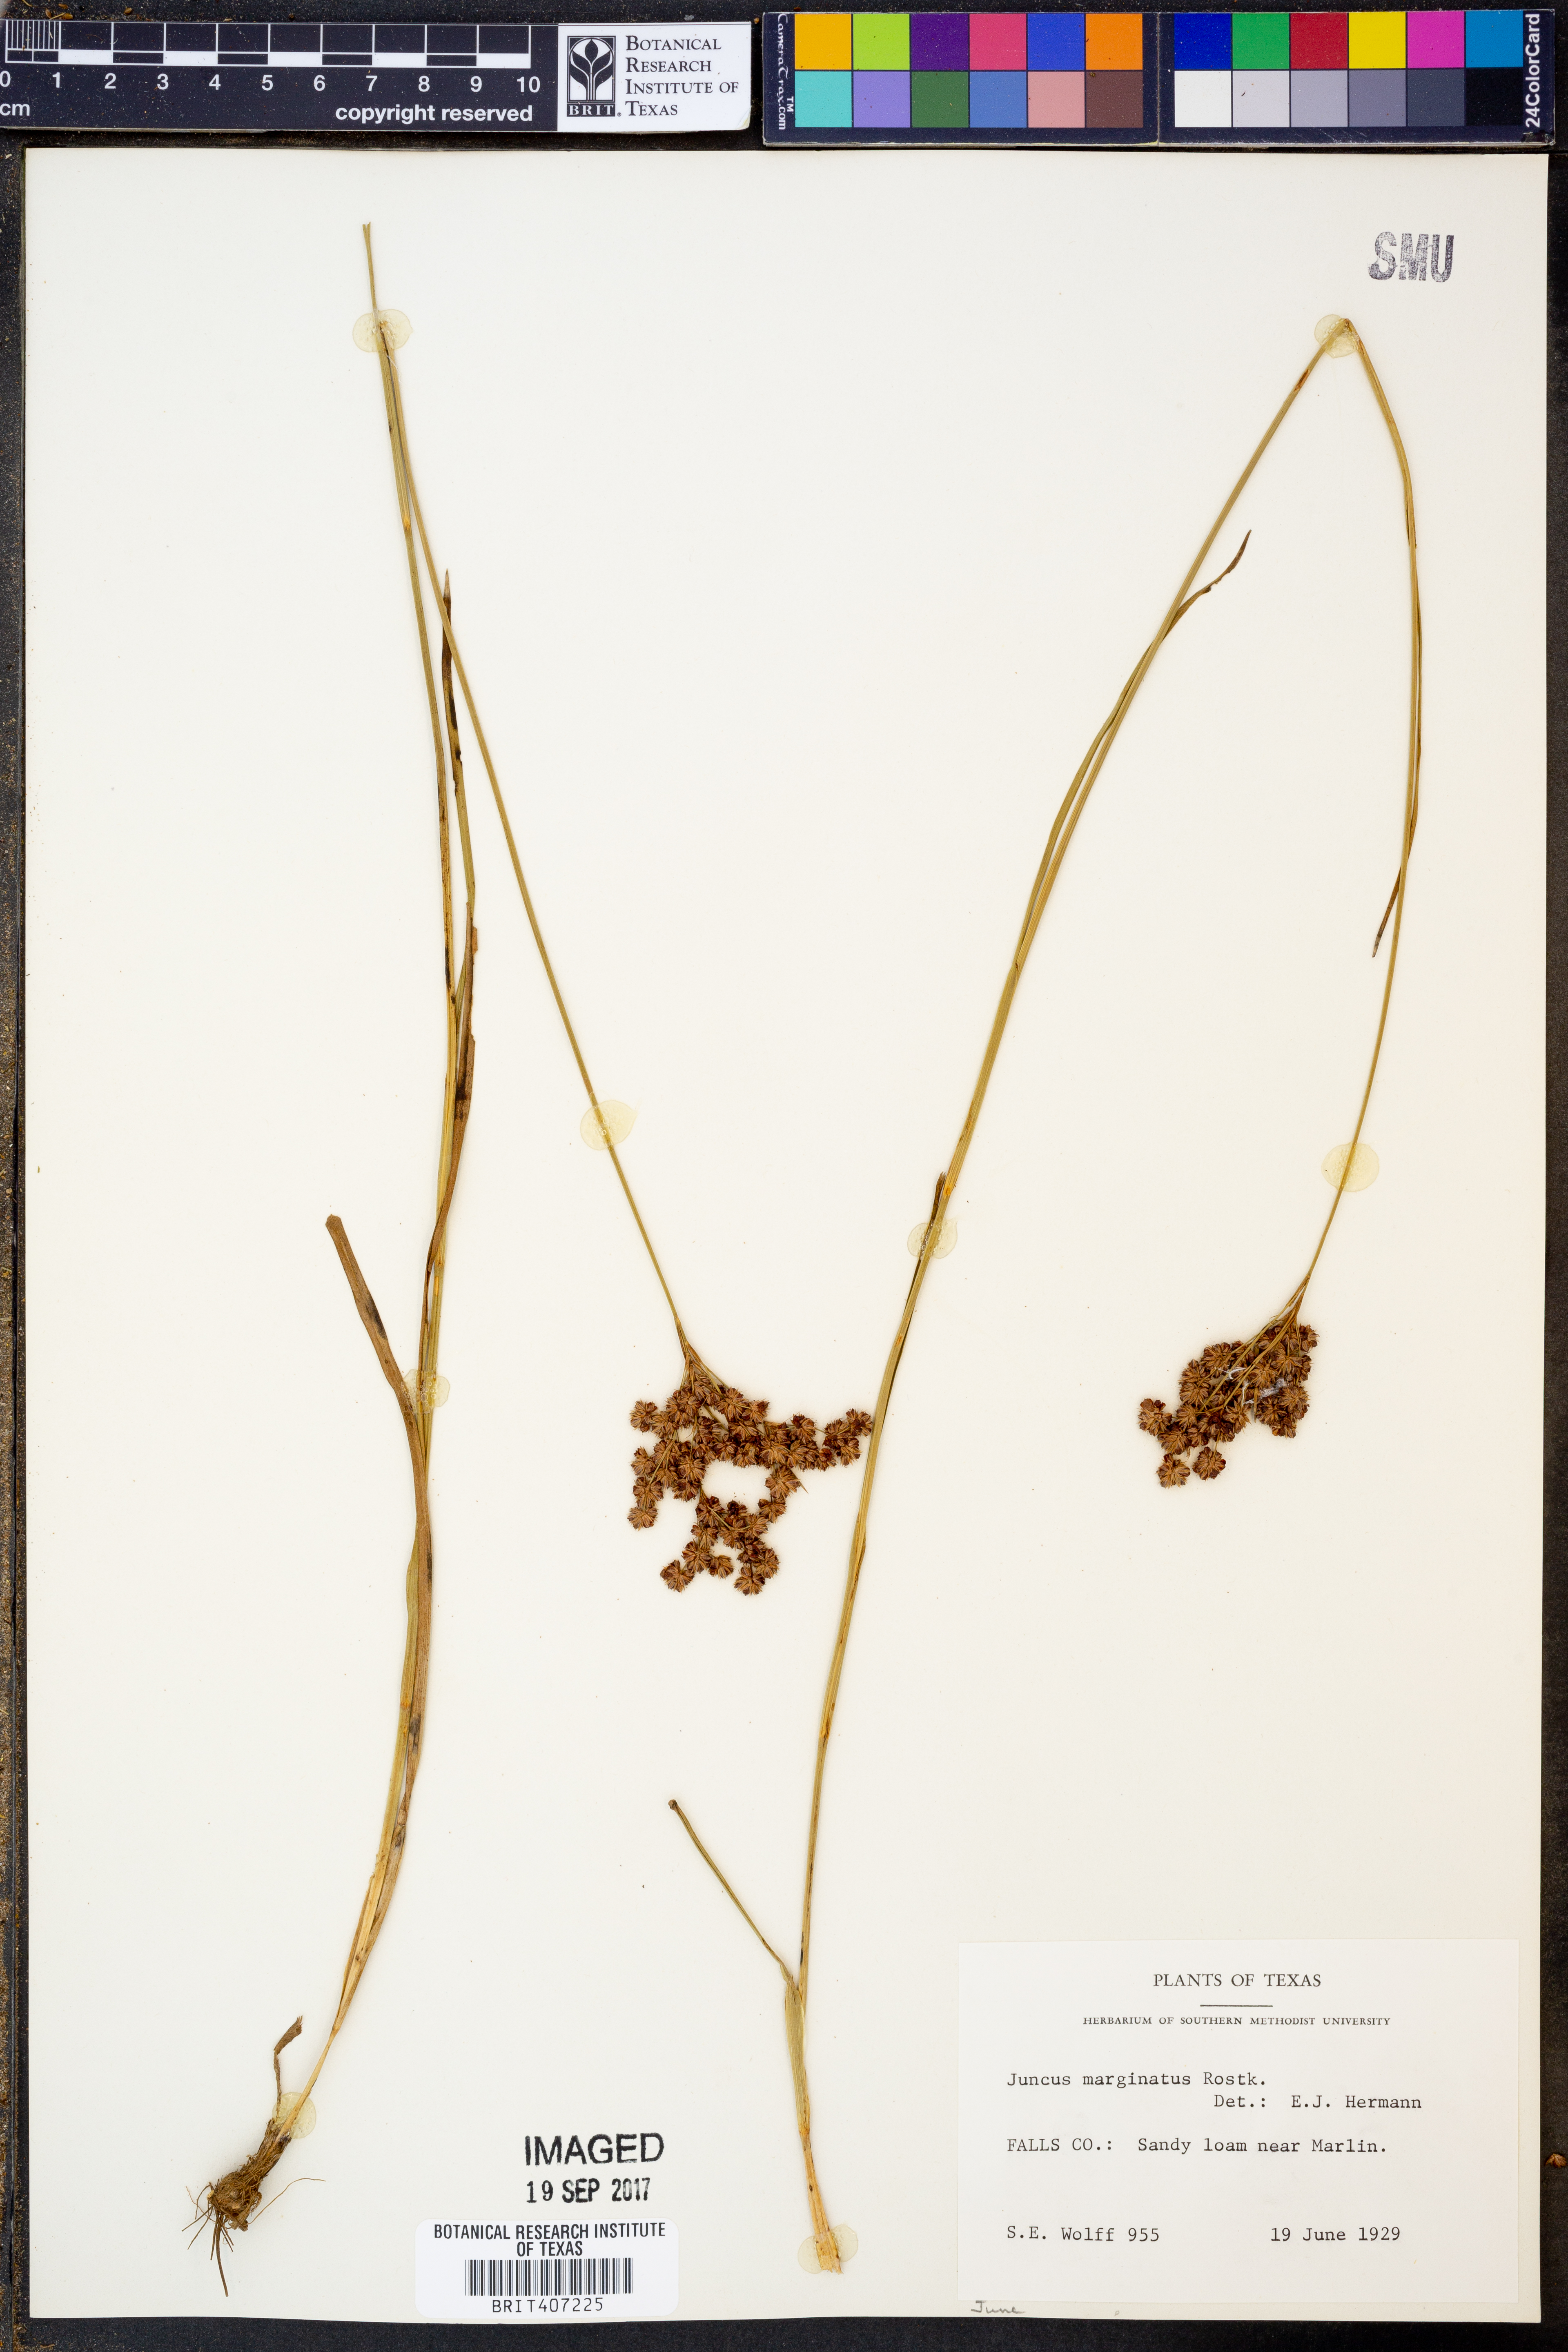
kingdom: Plantae
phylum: Tracheophyta
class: Liliopsida
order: Poales
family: Juncaceae
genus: Juncus
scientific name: Juncus marginatus
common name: Grass-leaf rush
